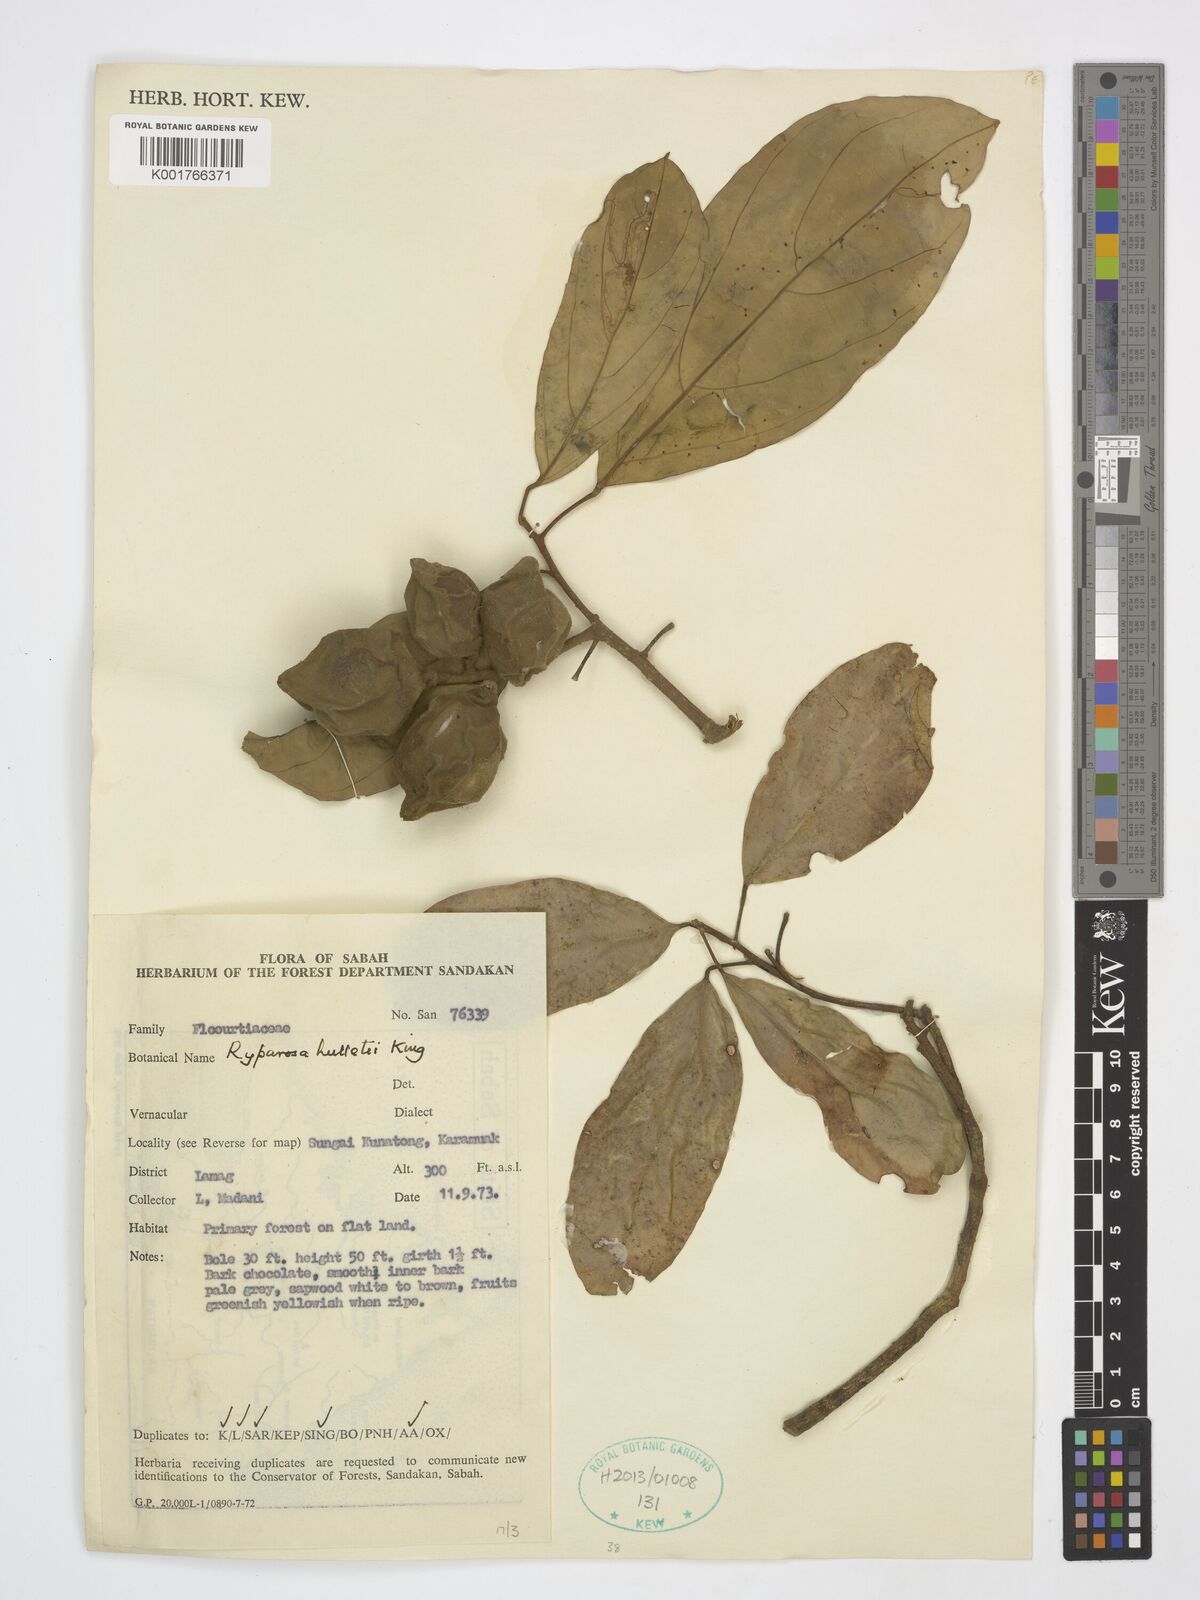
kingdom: Plantae
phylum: Tracheophyta
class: Magnoliopsida
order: Malpighiales
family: Achariaceae
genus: Ryparosa
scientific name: Ryparosa hullettii
